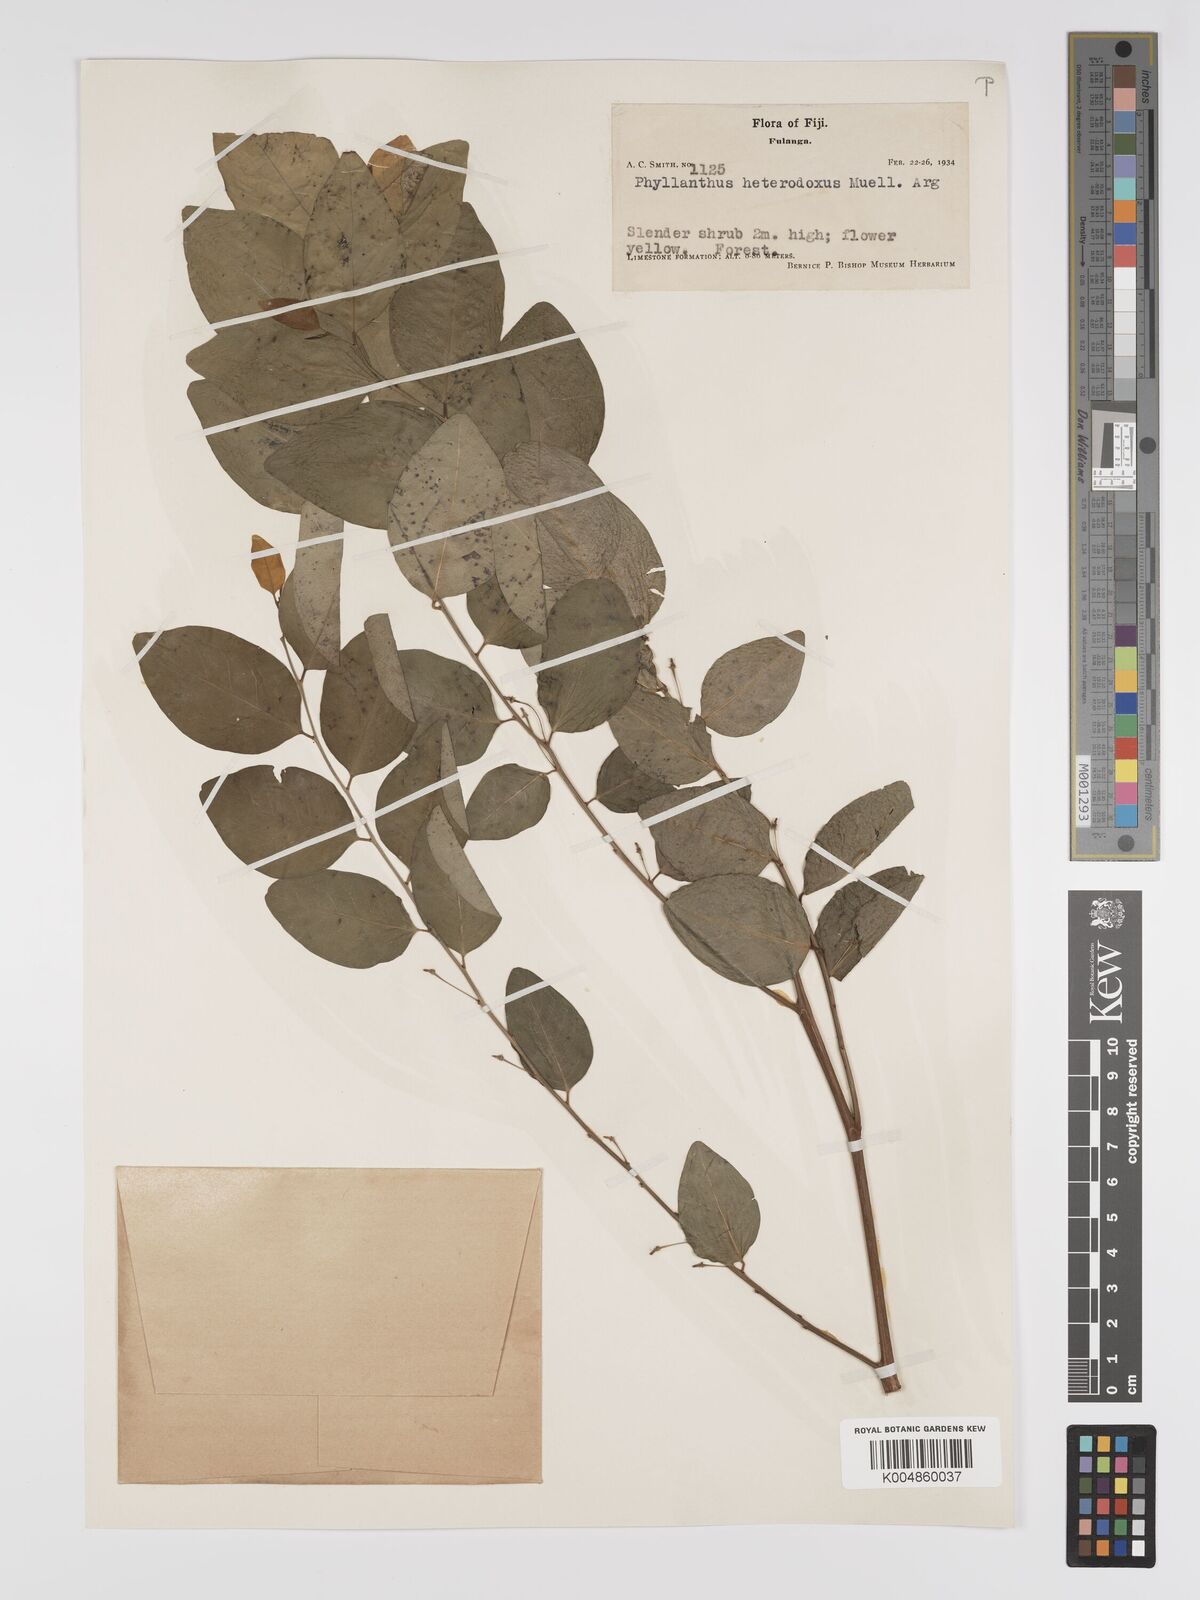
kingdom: Plantae
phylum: Tracheophyta
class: Magnoliopsida
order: Malpighiales
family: Phyllanthaceae
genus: Glochidion
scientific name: Glochidion heterodoxum
